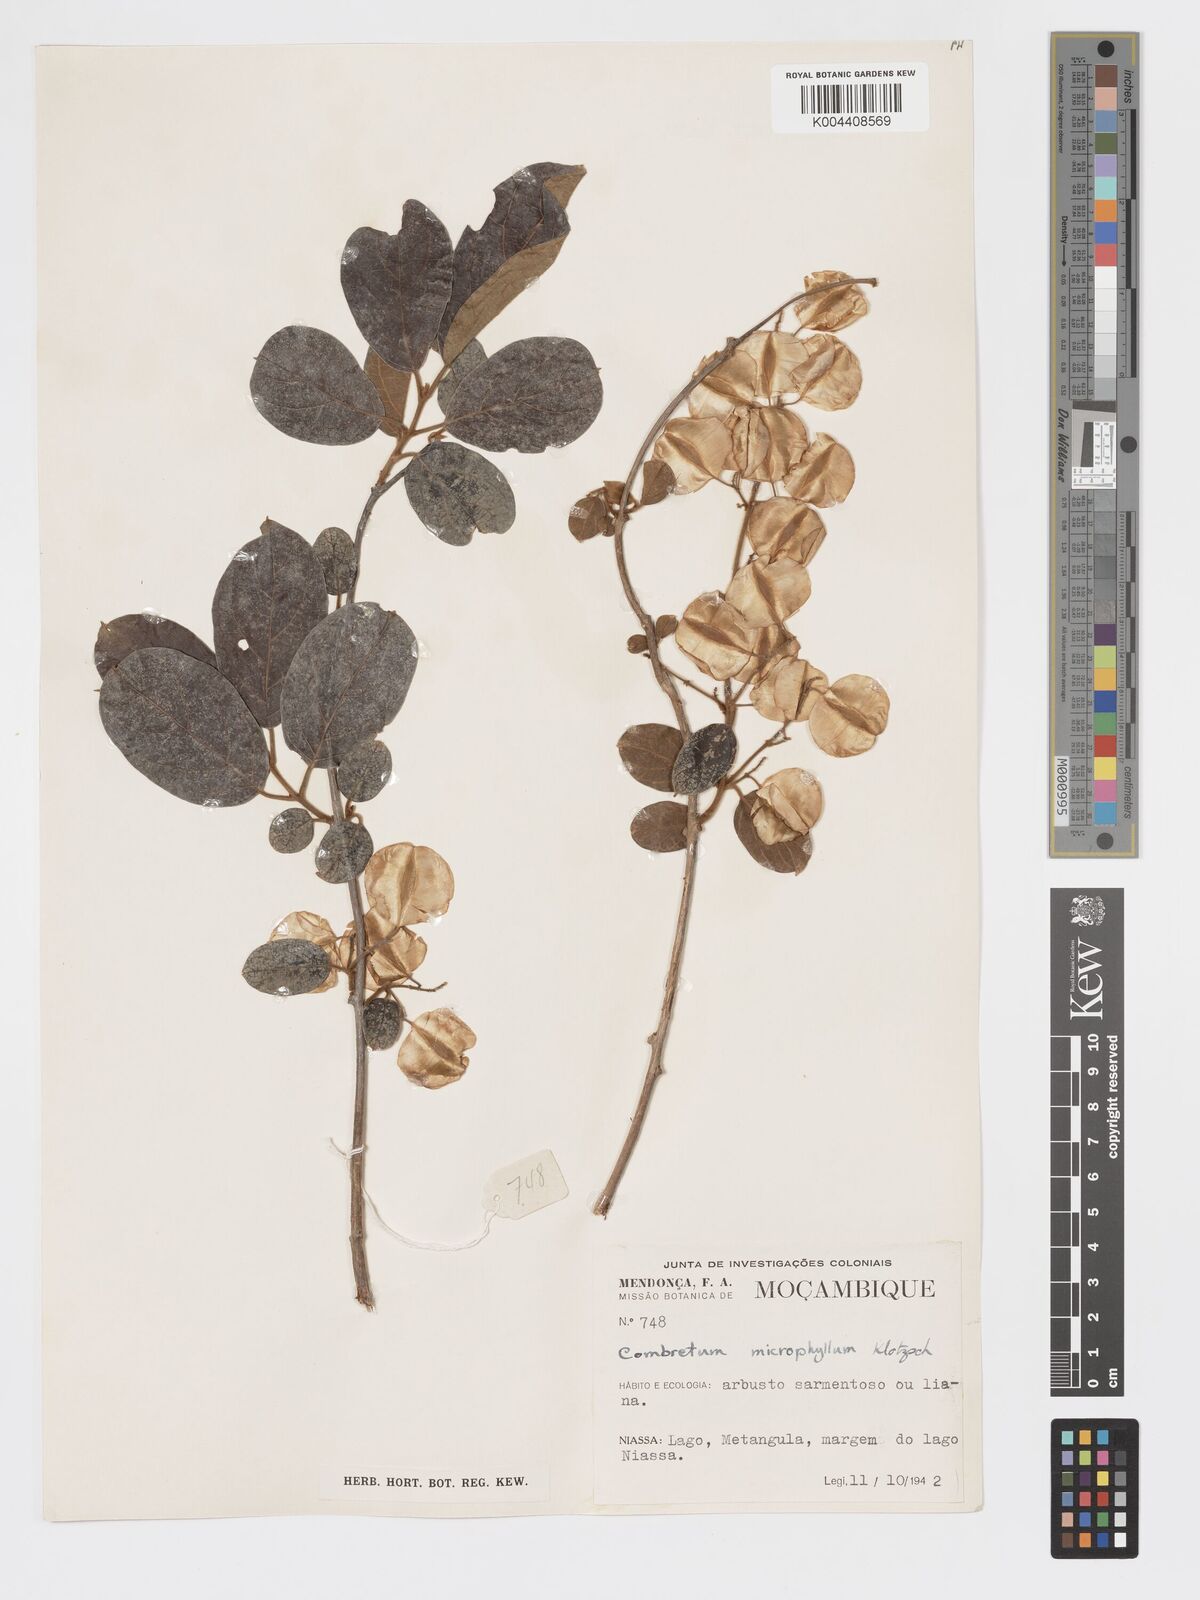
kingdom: Plantae
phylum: Tracheophyta
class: Magnoliopsida
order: Myrtales
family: Combretaceae
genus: Combretum
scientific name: Combretum microphyllum
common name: Burningbush
